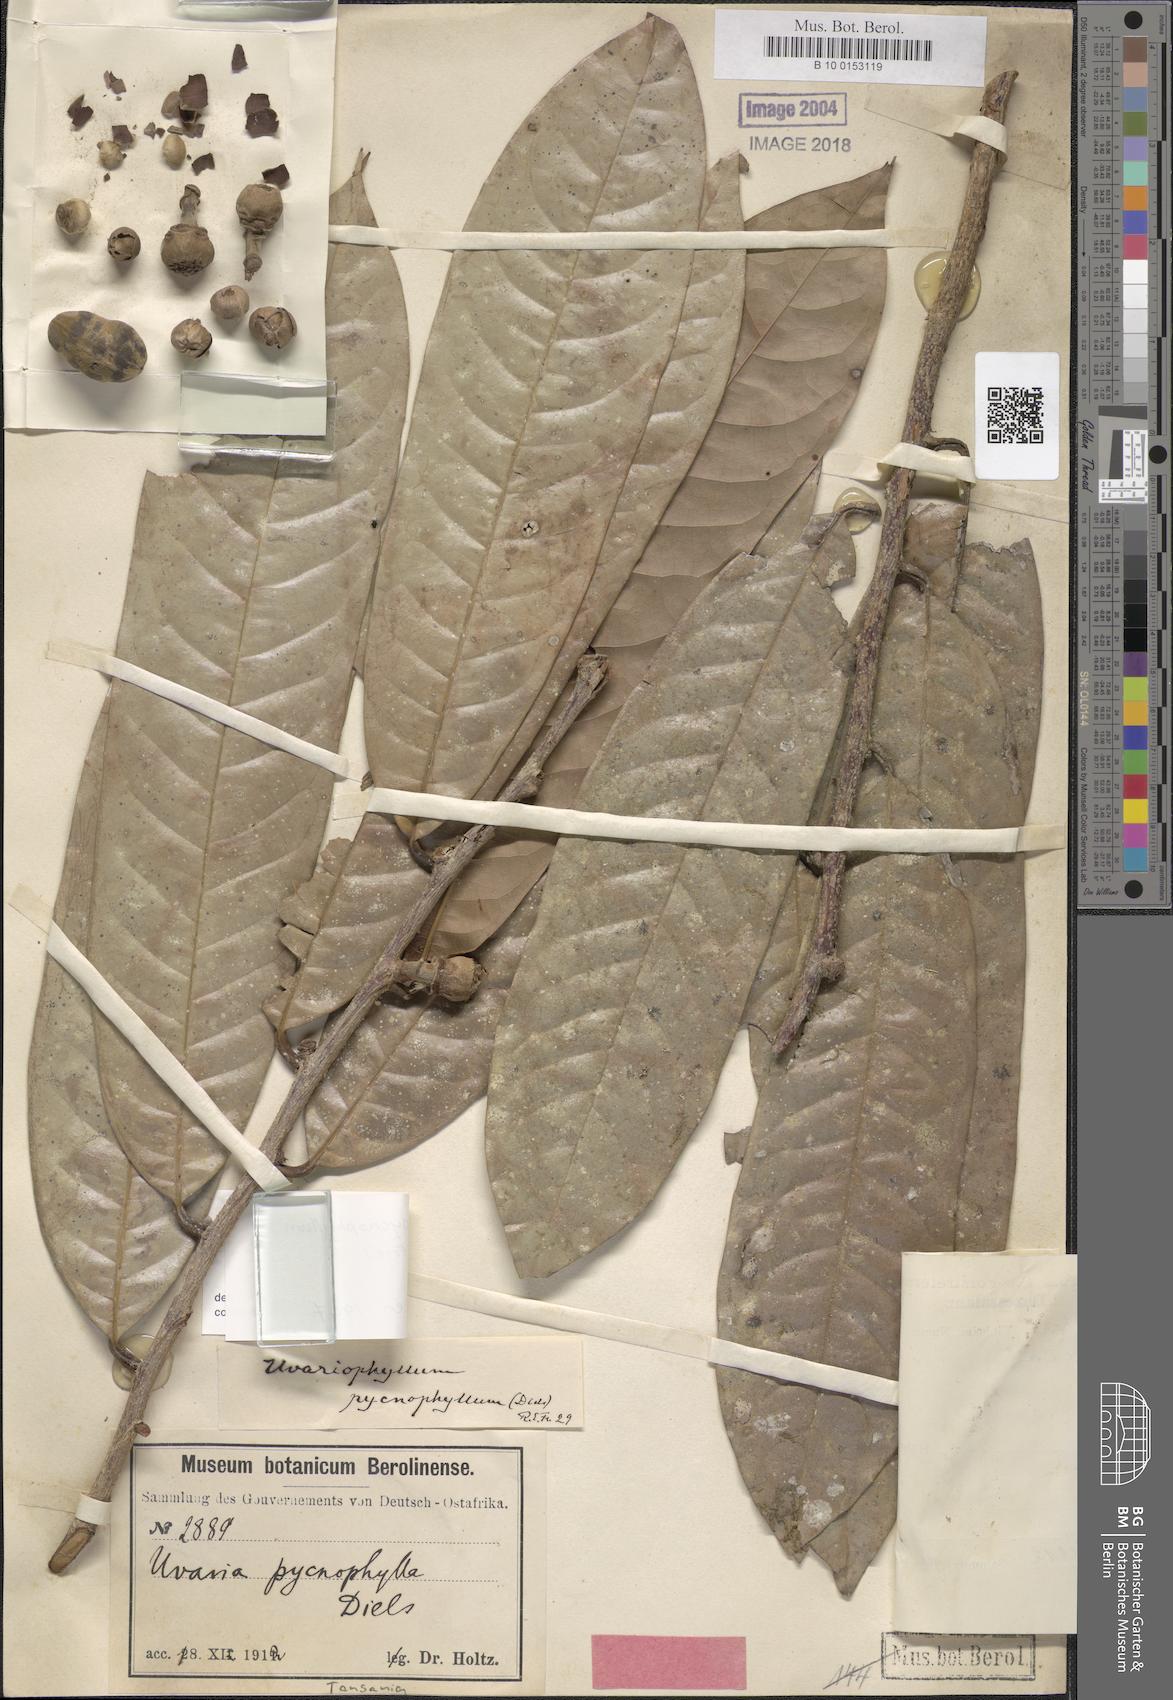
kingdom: Plantae
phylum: Tracheophyta
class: Magnoliopsida
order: Magnoliales
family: Annonaceae
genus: Uvariodendron
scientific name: Uvariodendron pycnophyllum
